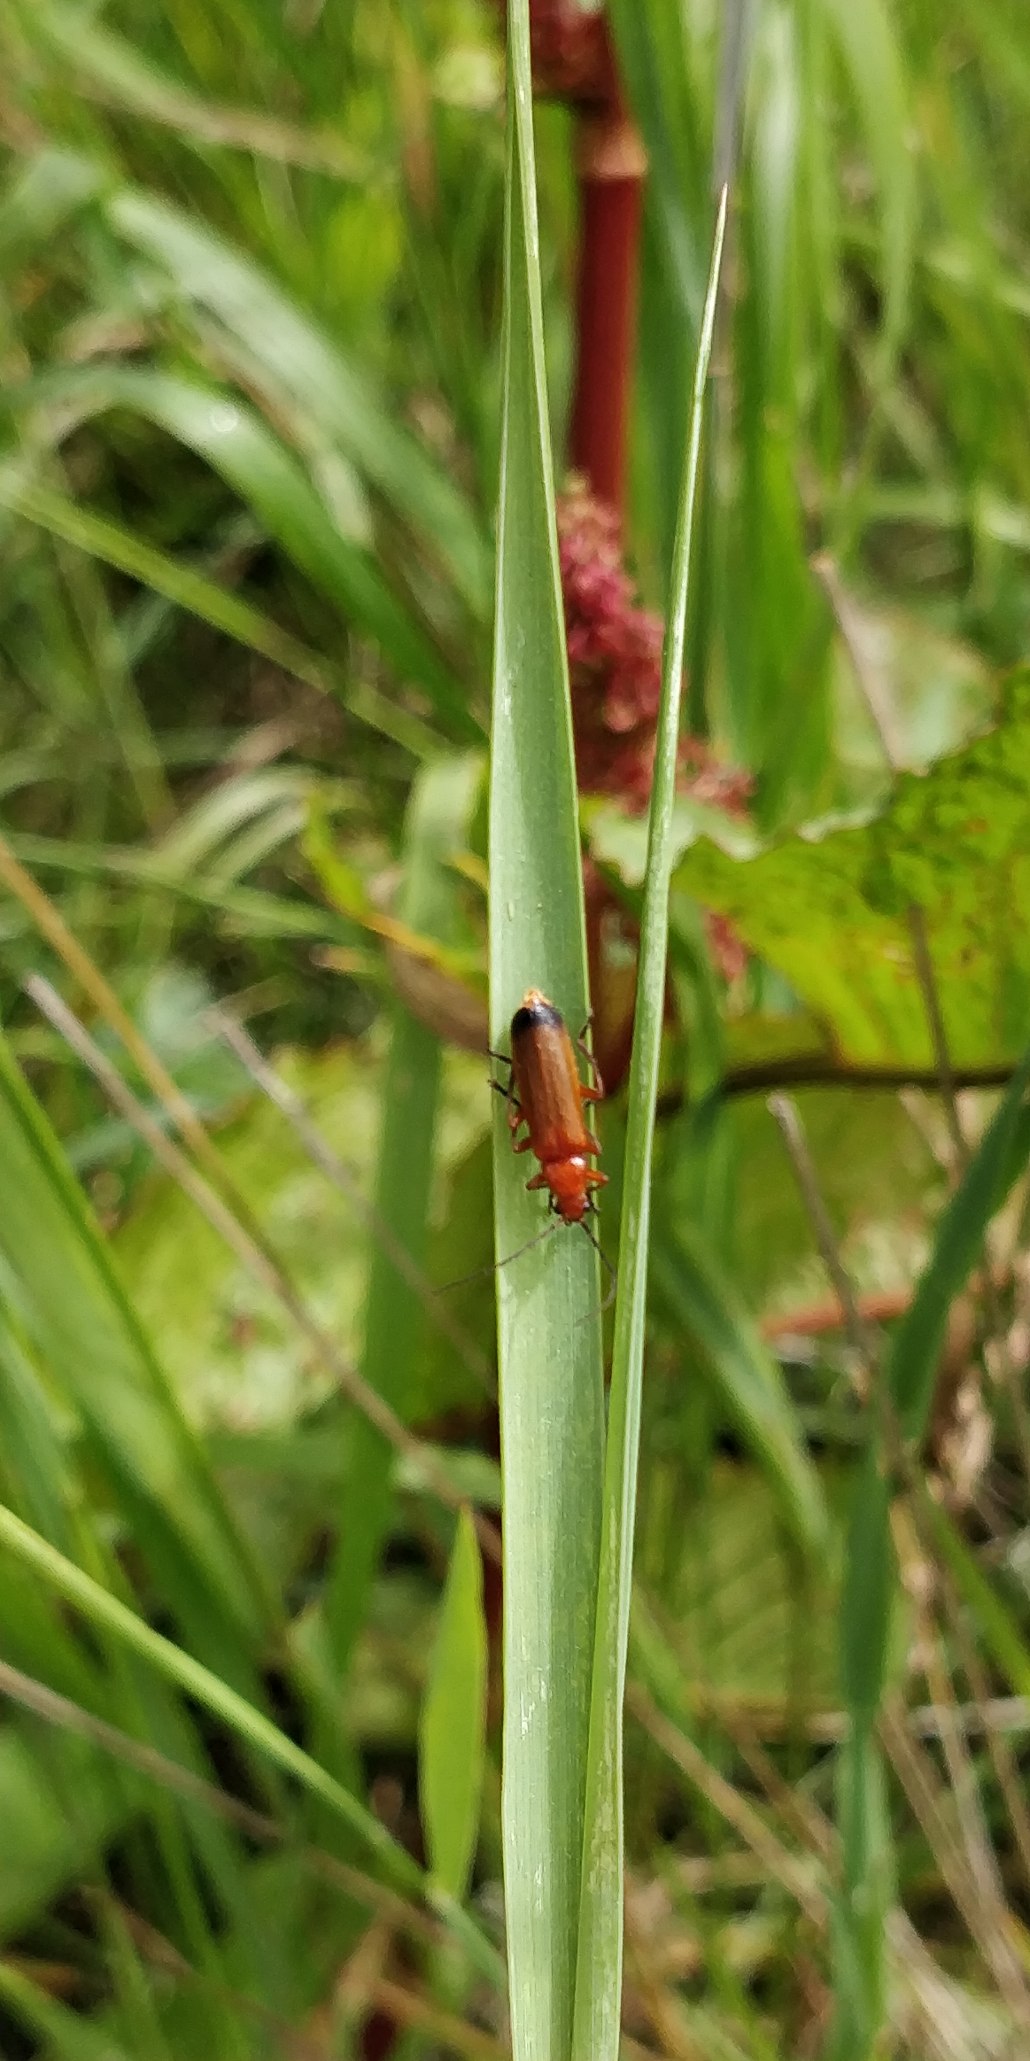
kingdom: Animalia
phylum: Arthropoda
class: Insecta
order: Coleoptera
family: Cantharidae
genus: Rhagonycha
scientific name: Rhagonycha fulva
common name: Præstebille
